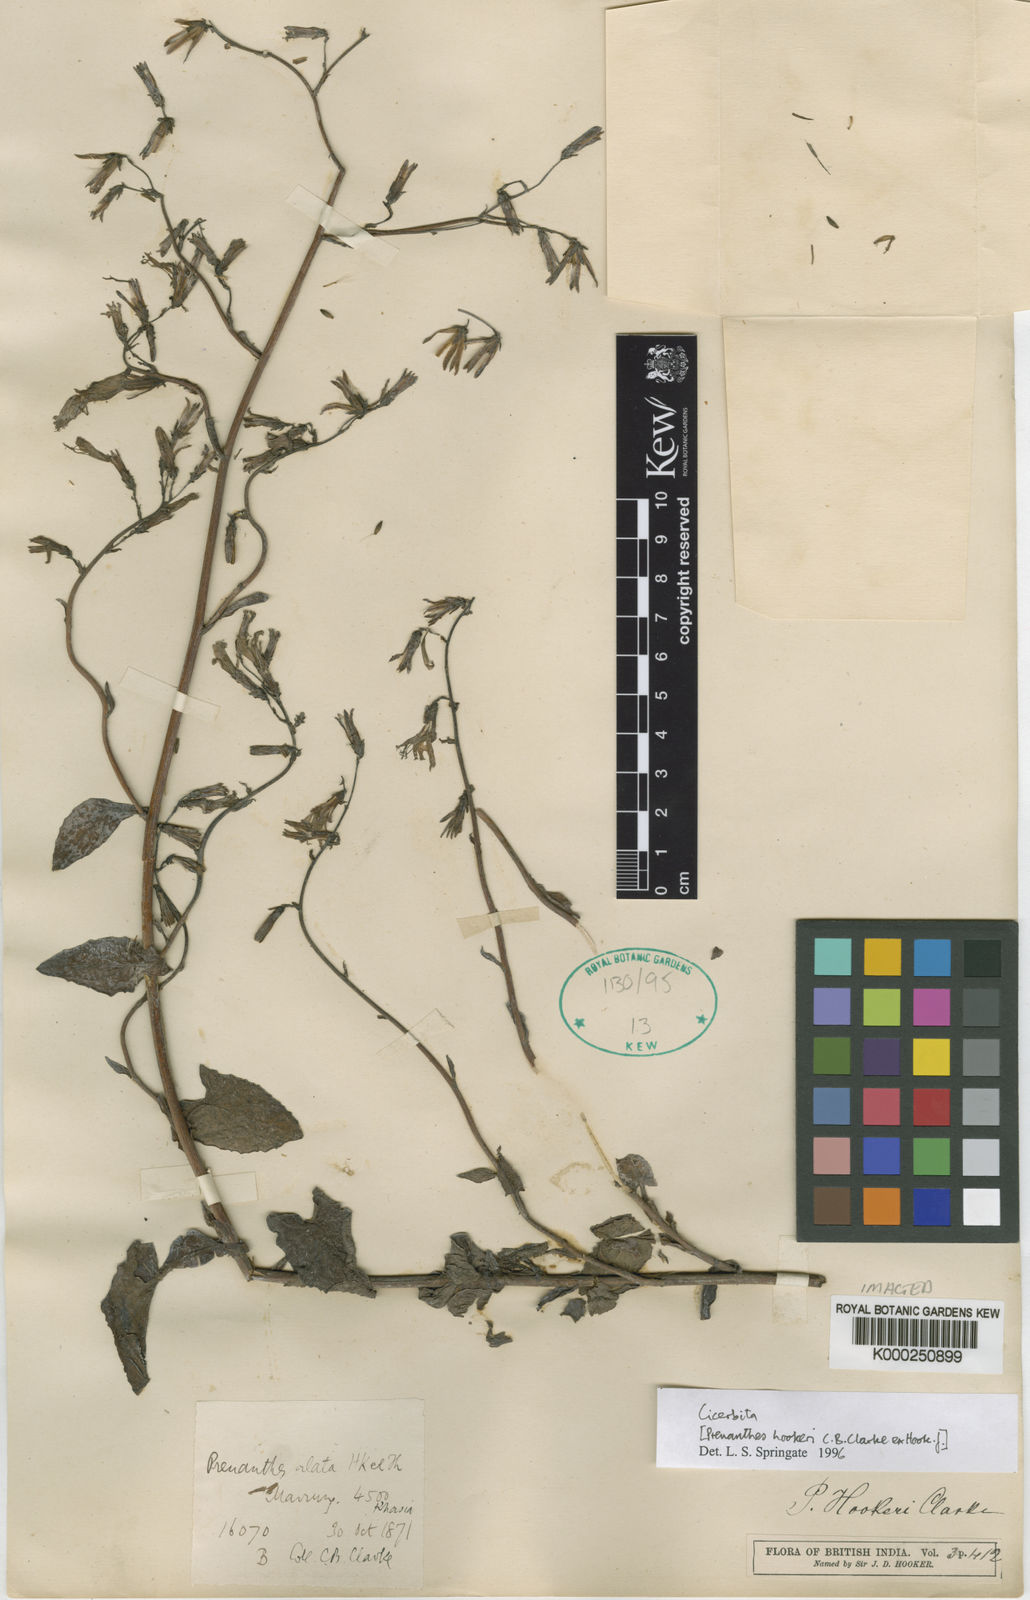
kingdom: Plantae
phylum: Tracheophyta
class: Magnoliopsida
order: Asterales
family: Asteraceae
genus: Prenanthes
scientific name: Prenanthes hookeri
